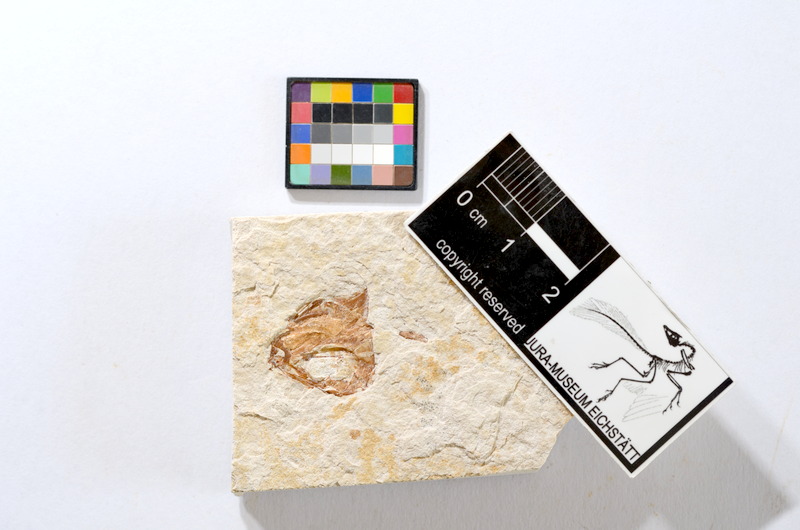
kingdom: Animalia
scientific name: Animalia
